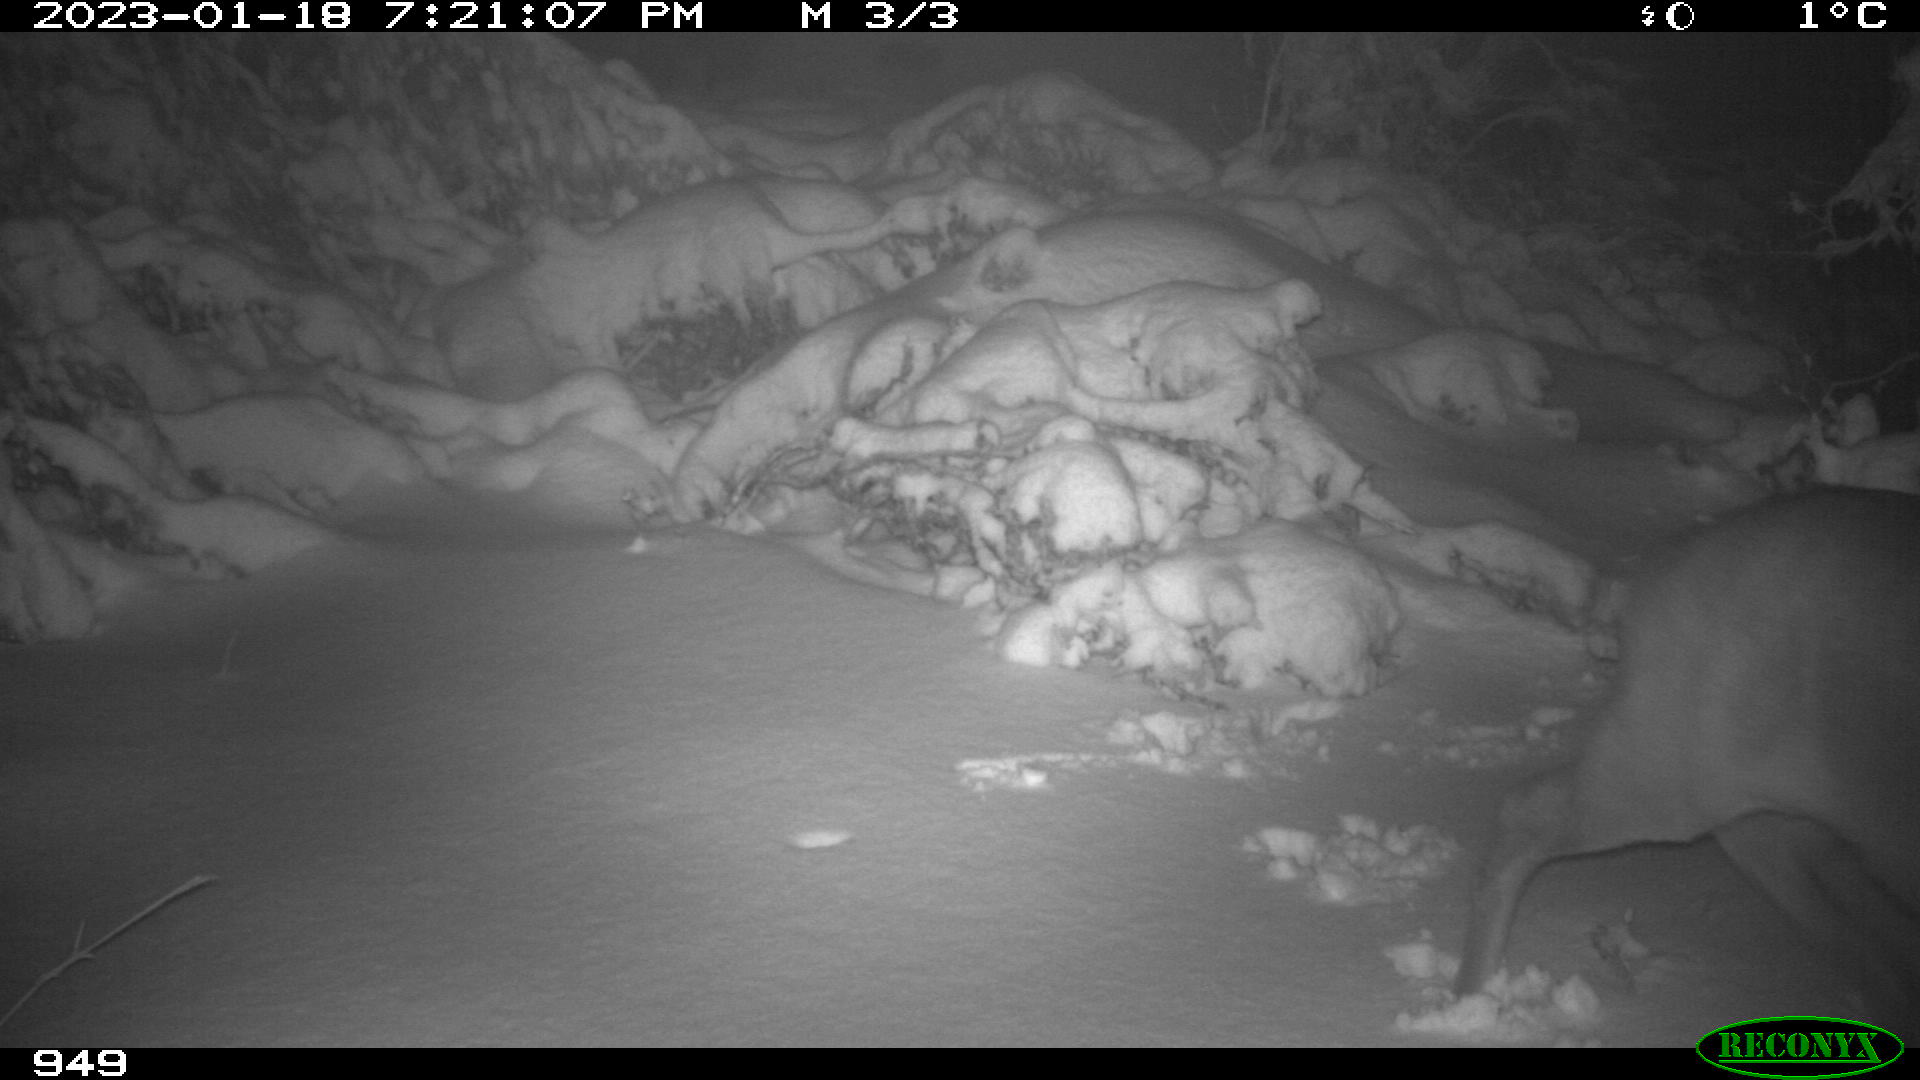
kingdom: Animalia
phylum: Chordata
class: Mammalia
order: Artiodactyla
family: Cervidae
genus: Capreolus
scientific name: Capreolus capreolus
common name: Western roe deer
